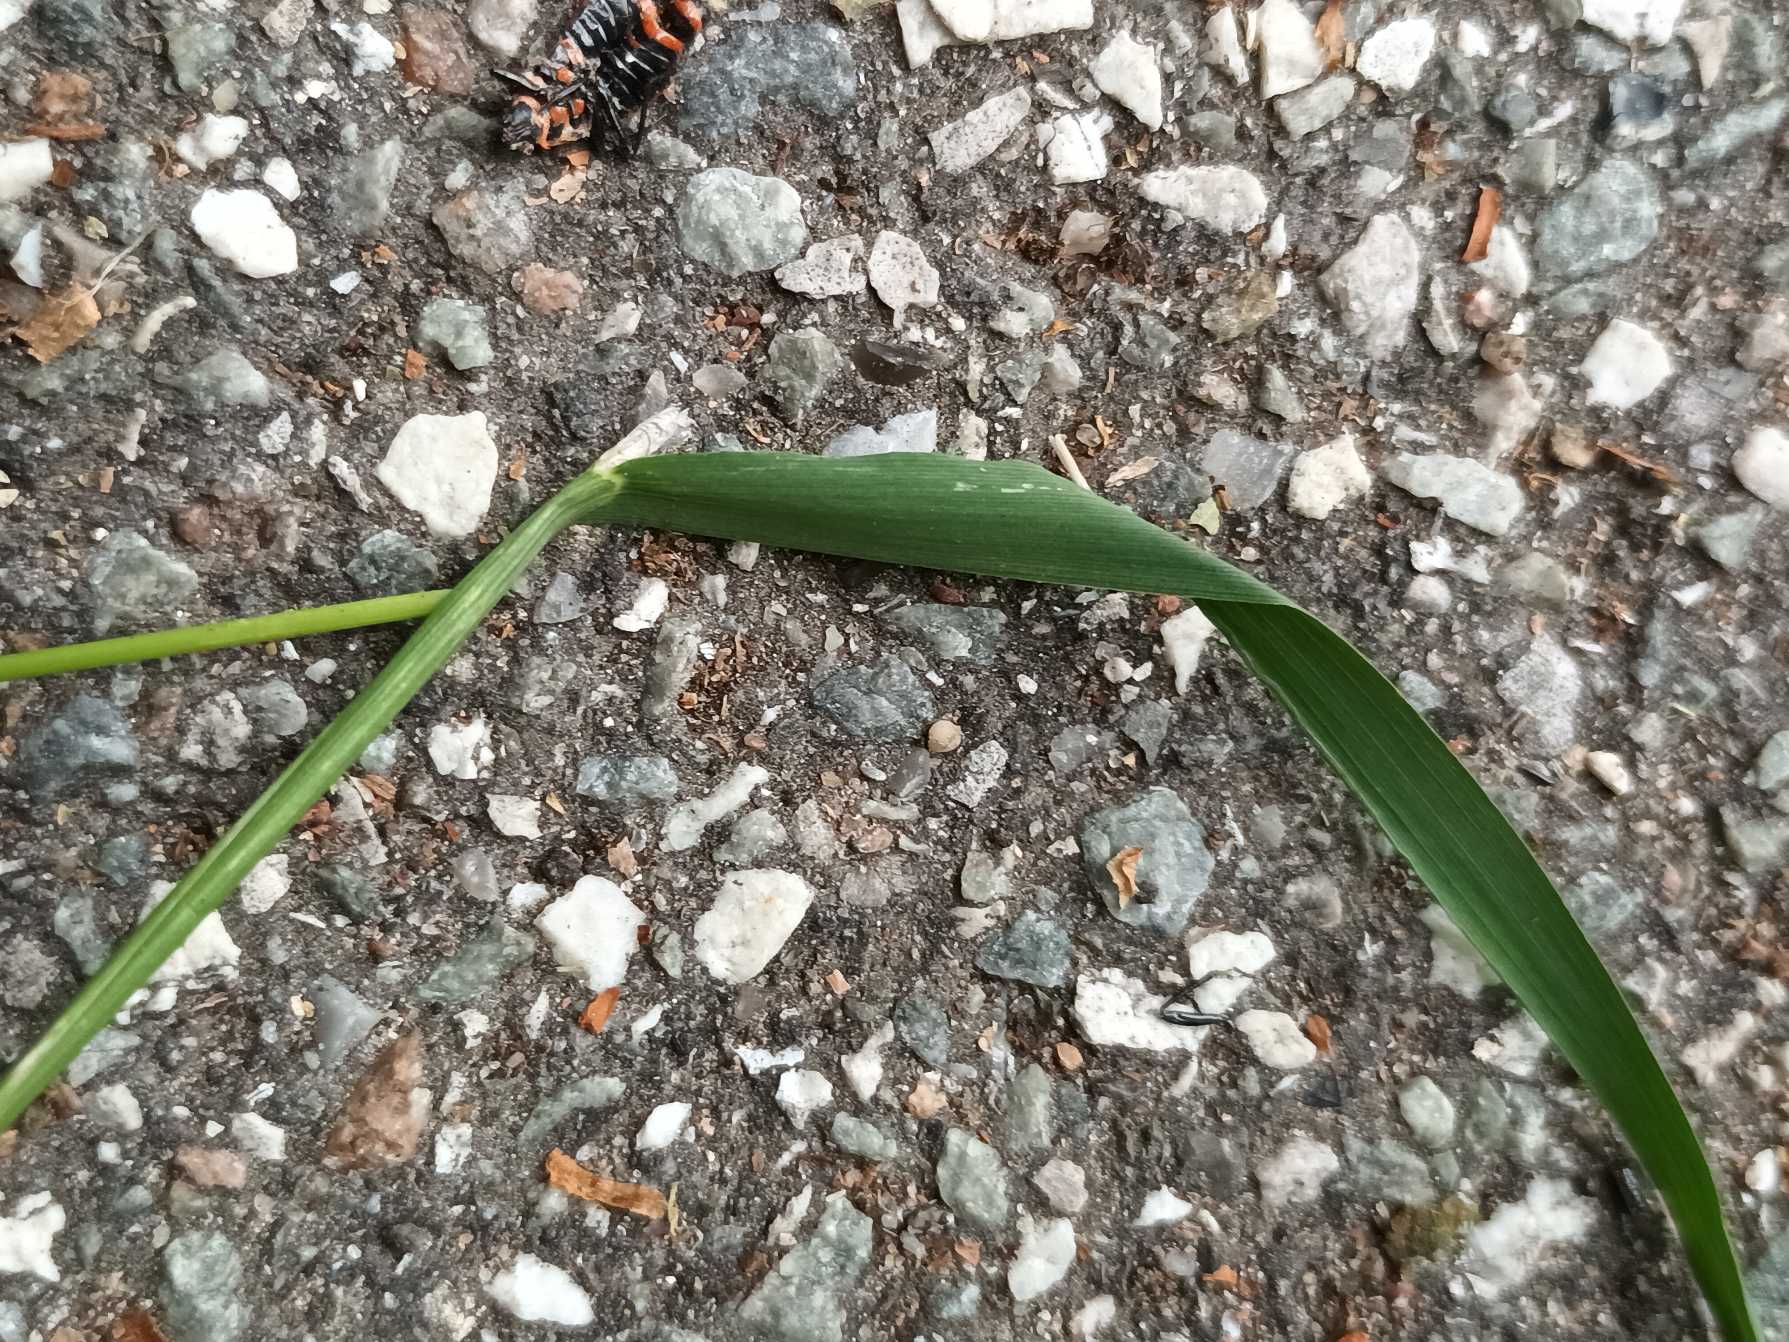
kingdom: Plantae
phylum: Tracheophyta
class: Liliopsida
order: Poales
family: Poaceae
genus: Agrostis
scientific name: Agrostis gigantea
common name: Stortoppet hvene
